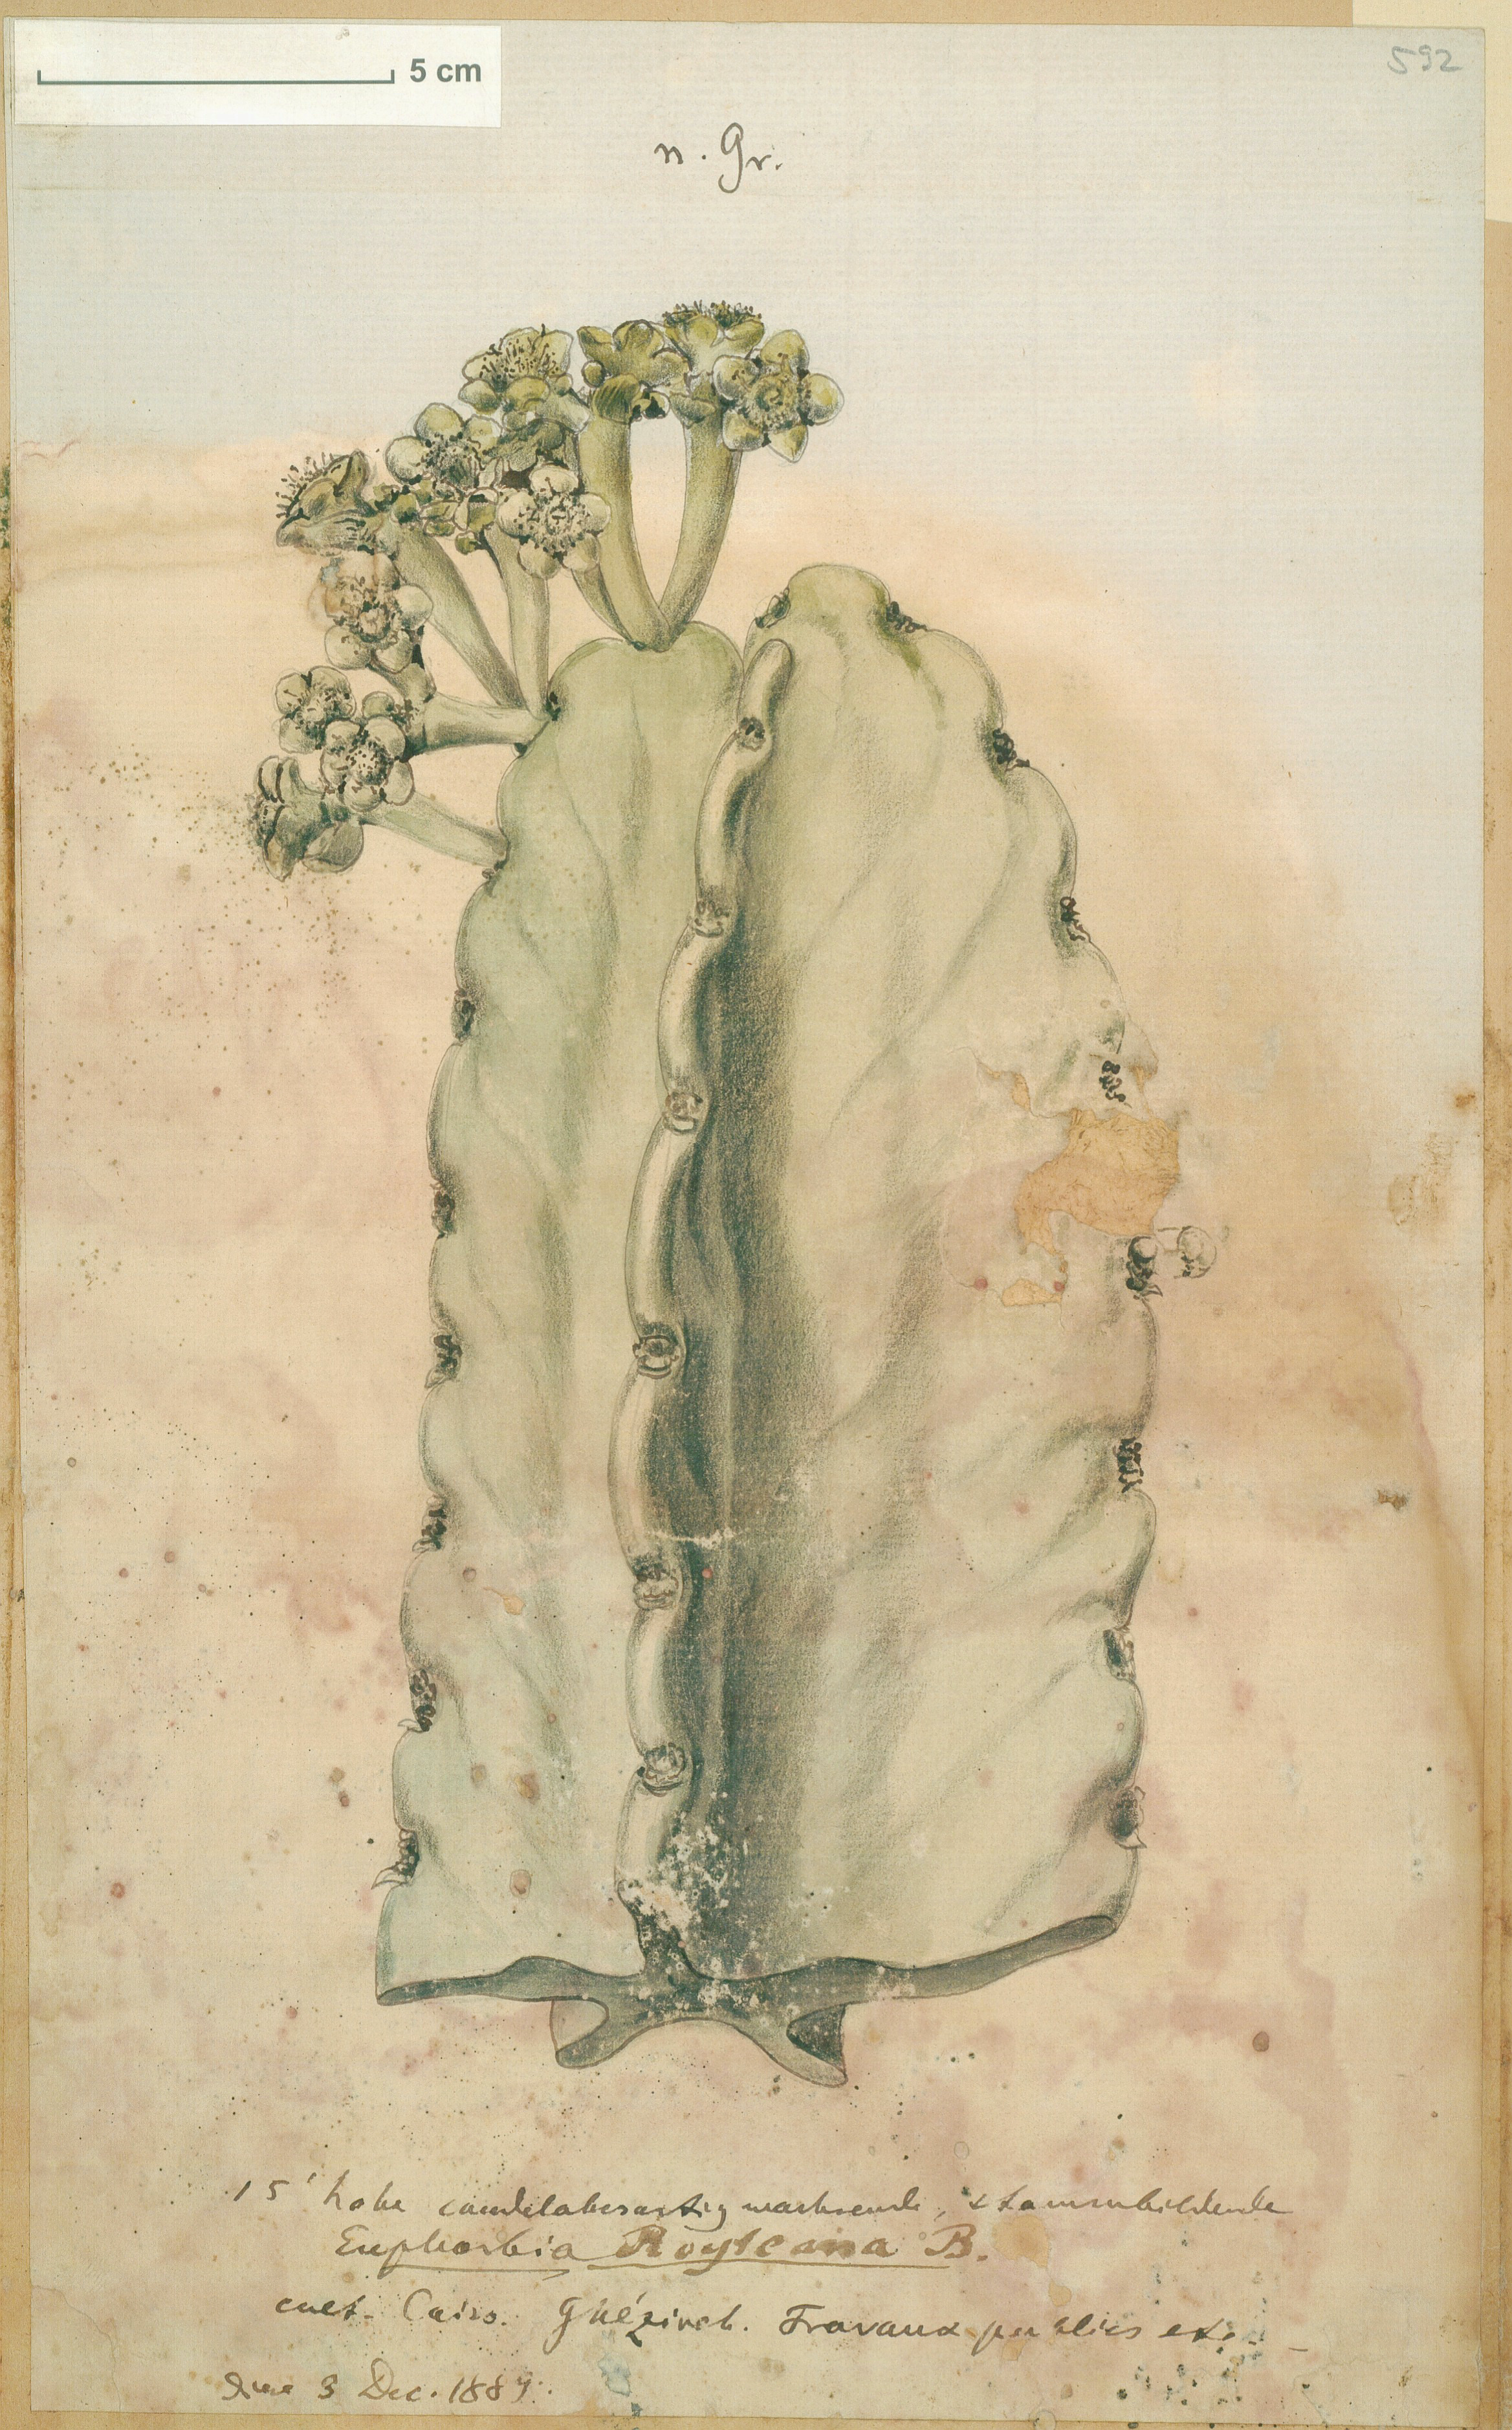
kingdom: Plantae
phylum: Tracheophyta
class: Magnoliopsida
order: Malpighiales
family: Euphorbiaceae
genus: Euphorbia
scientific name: Euphorbia royleana
